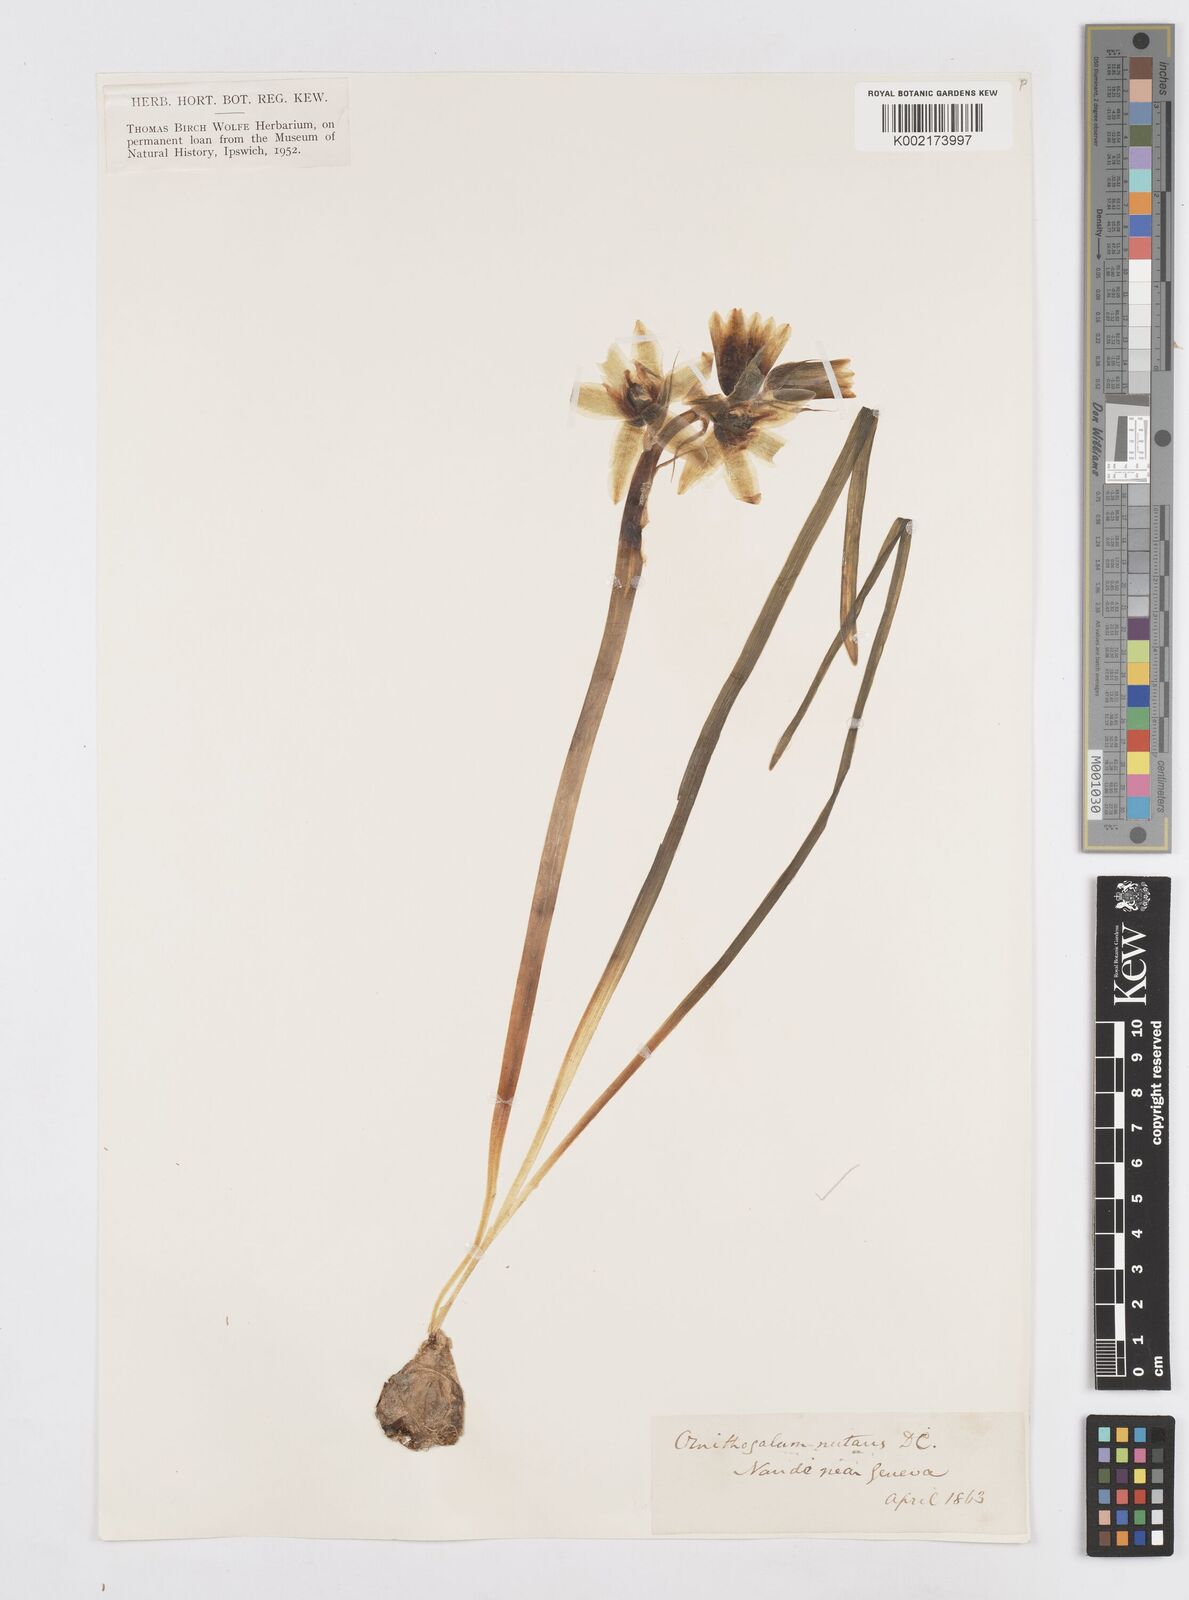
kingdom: Plantae
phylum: Tracheophyta
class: Liliopsida
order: Asparagales
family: Asparagaceae
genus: Ornithogalum
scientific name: Ornithogalum nutans
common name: Drooping star-of-bethlehem
